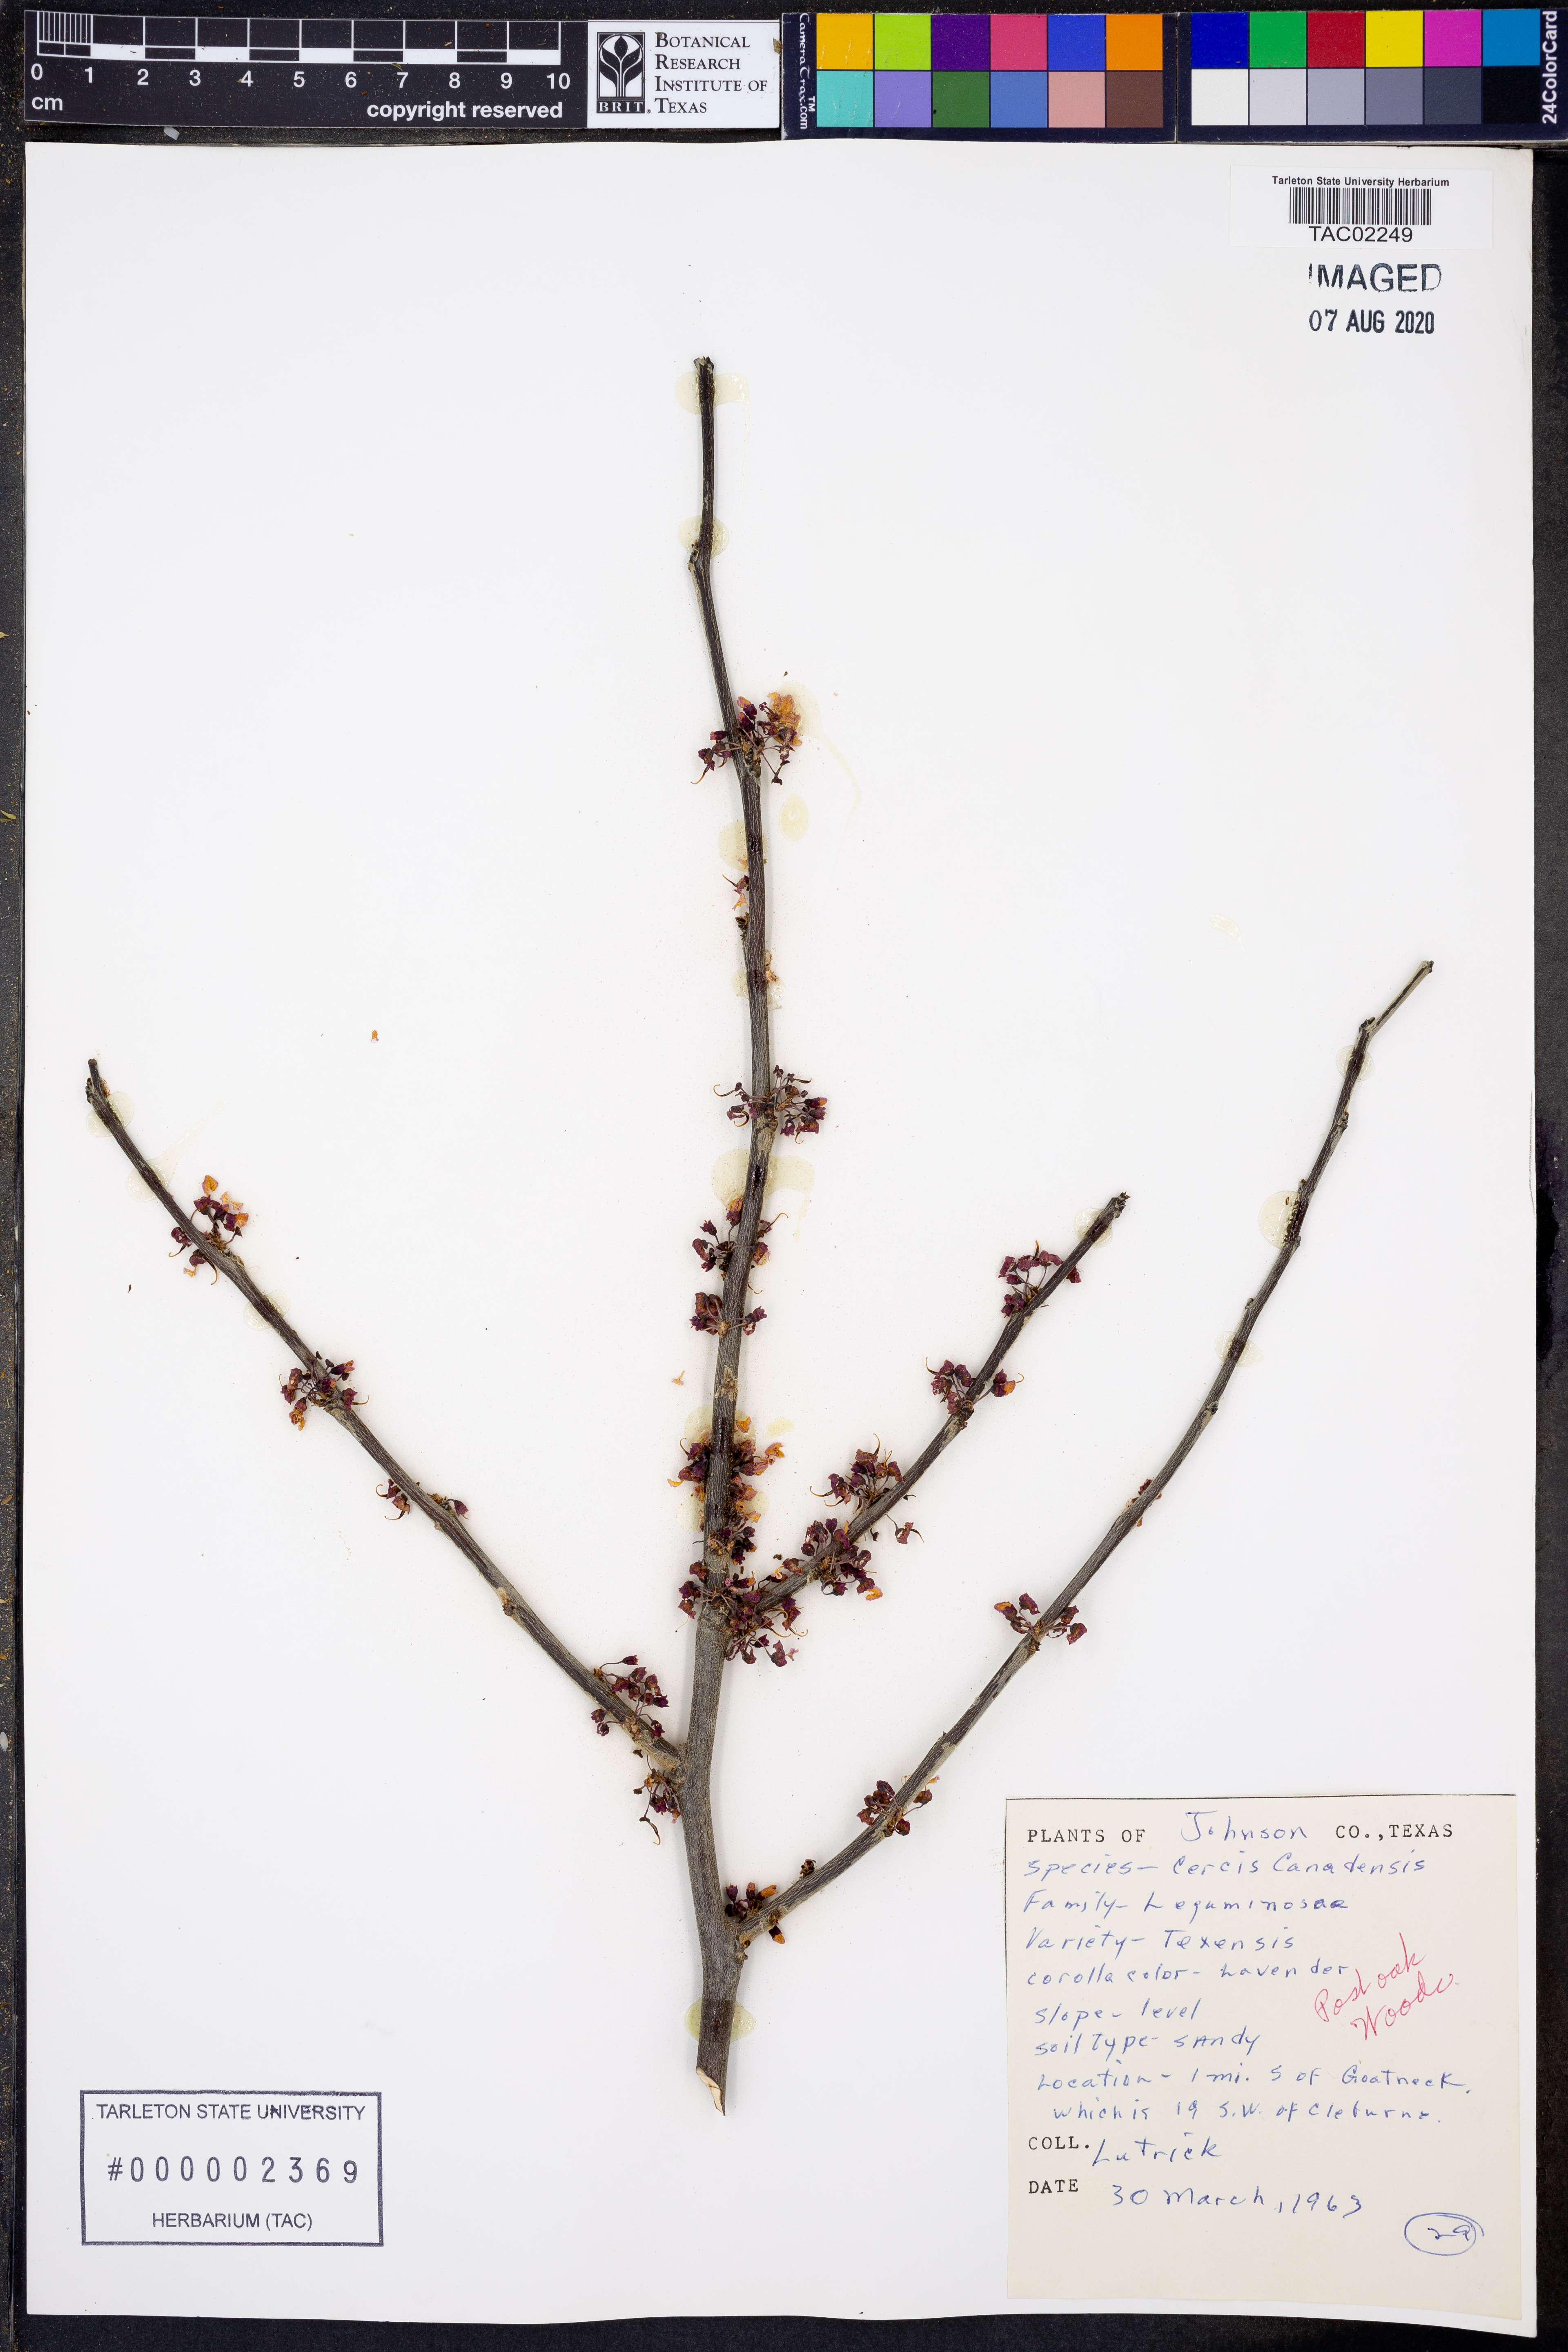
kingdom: Plantae
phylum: Tracheophyta
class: Magnoliopsida
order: Fabales
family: Fabaceae
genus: Cercis
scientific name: Cercis canadensis
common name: Eastern redbud
